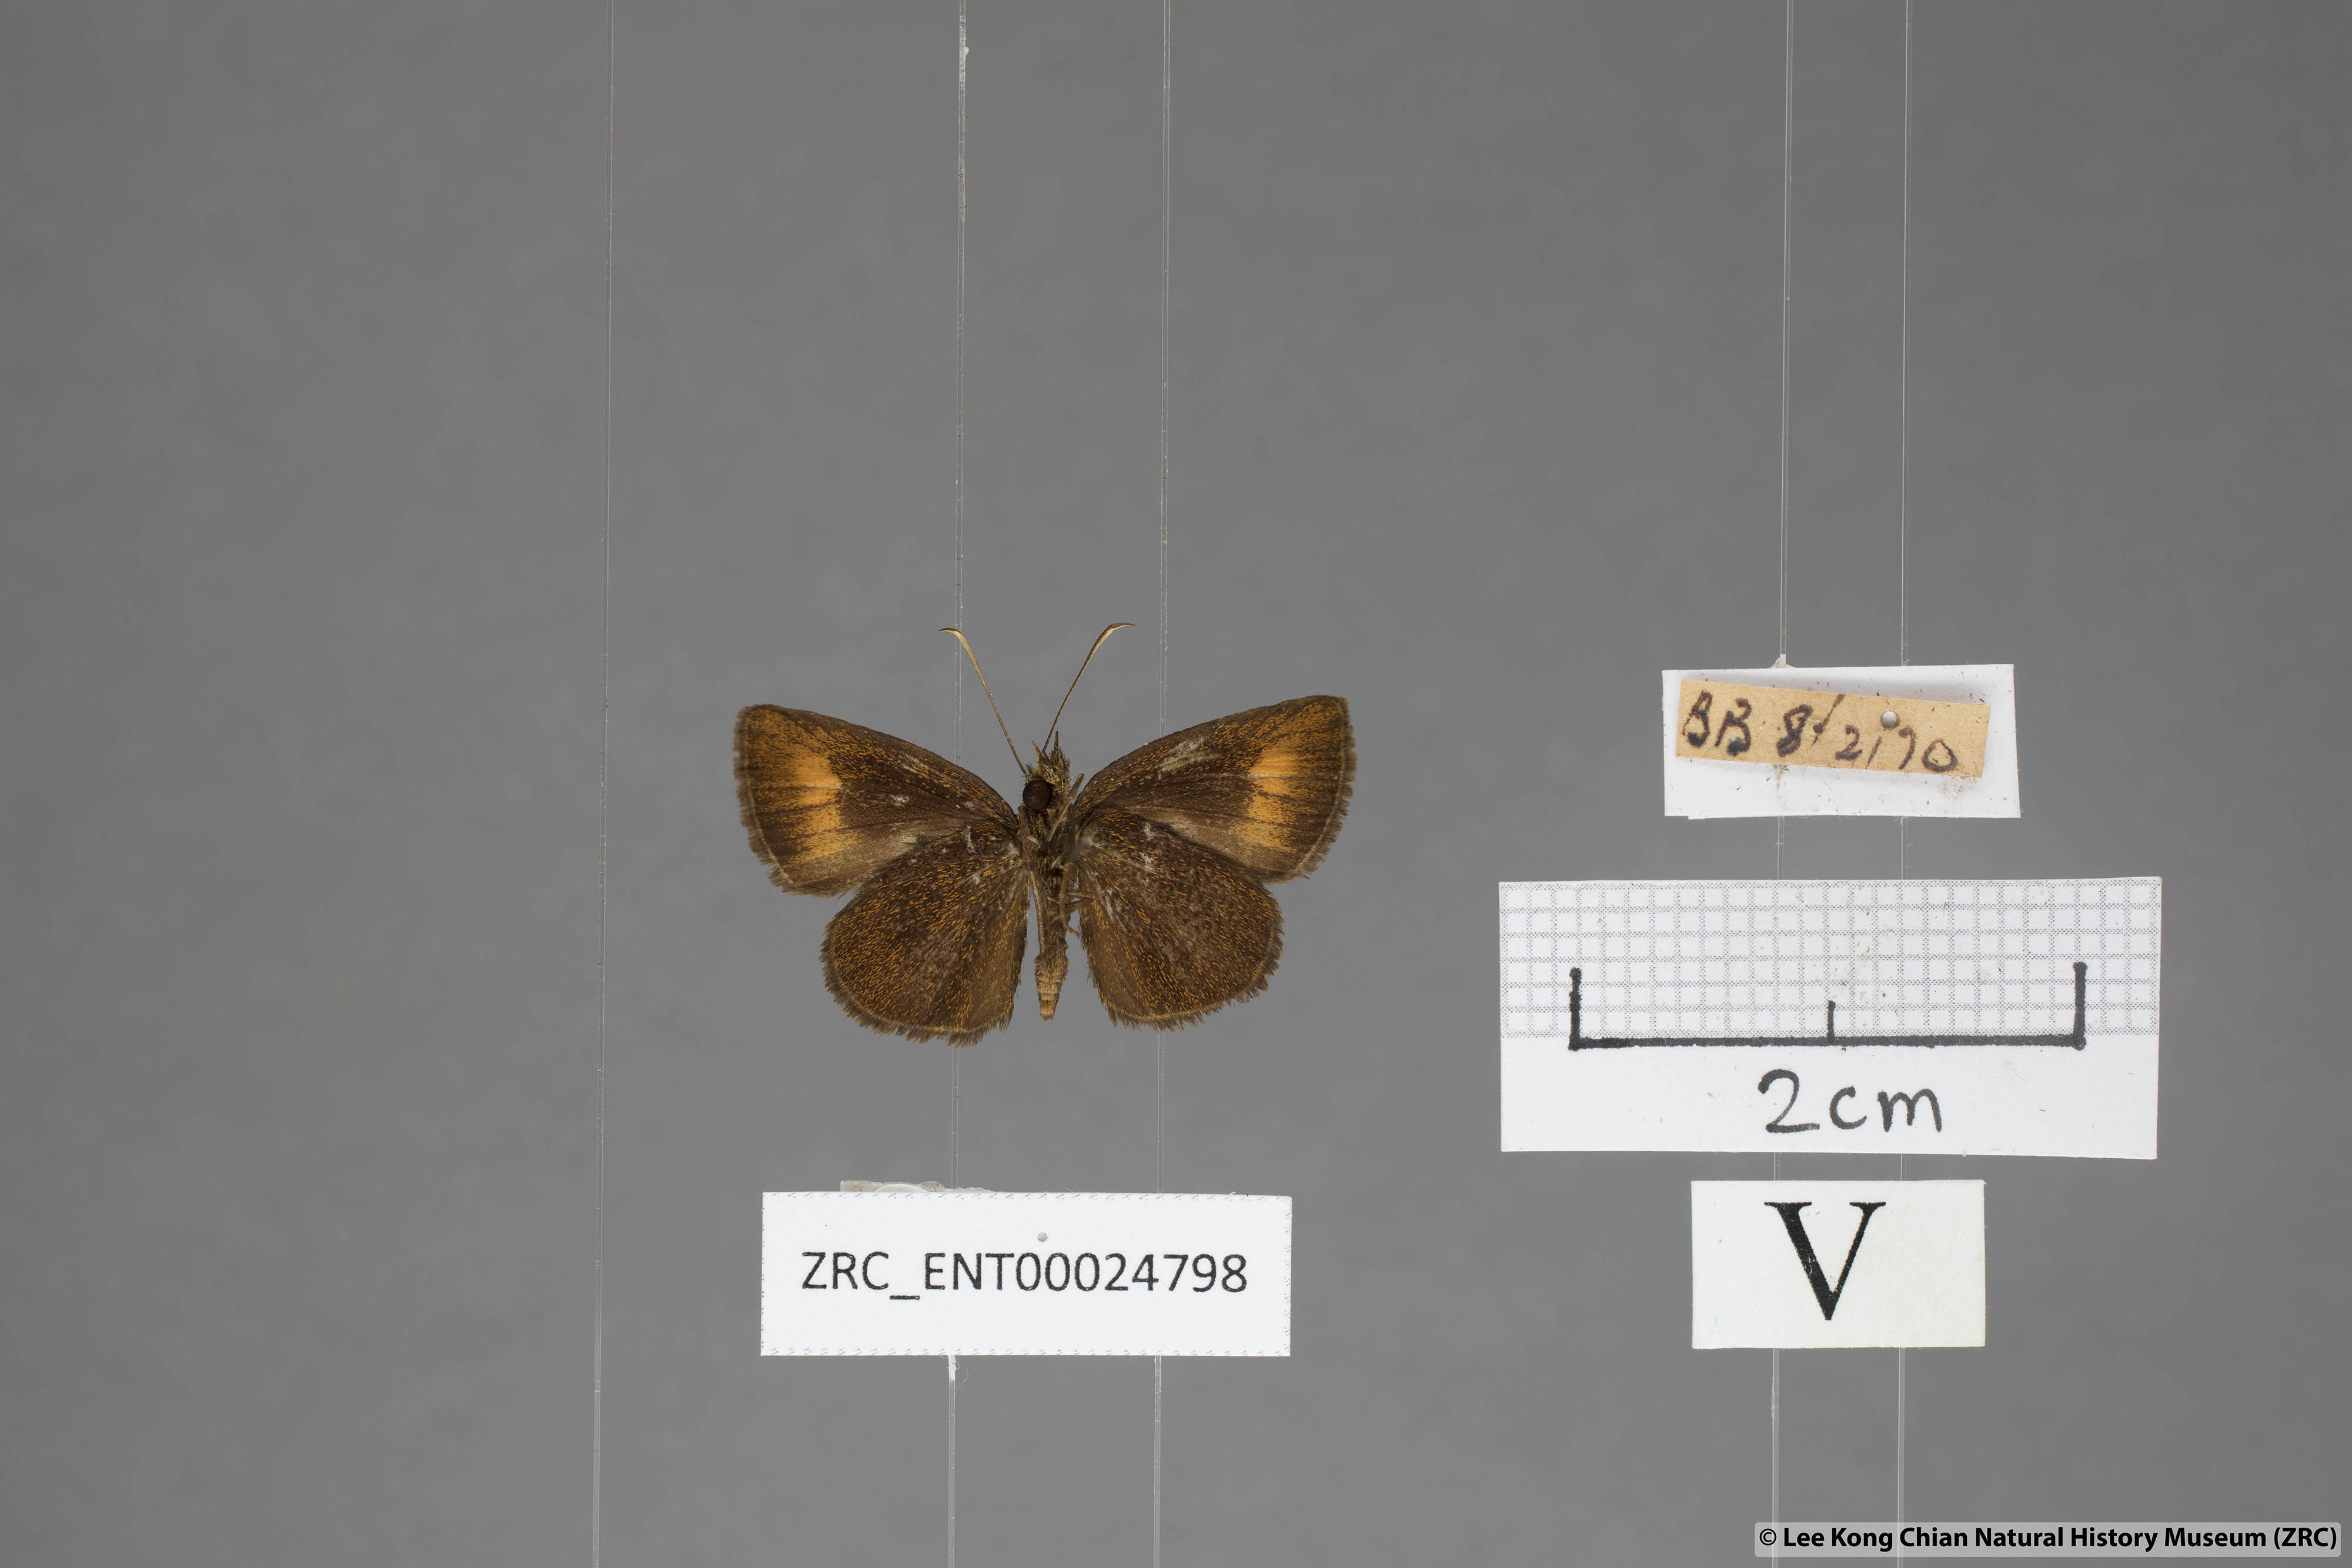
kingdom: Animalia
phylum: Arthropoda
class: Insecta
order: Lepidoptera
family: Hesperiidae
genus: Iambrix
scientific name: Iambrix Idmon obliquans
